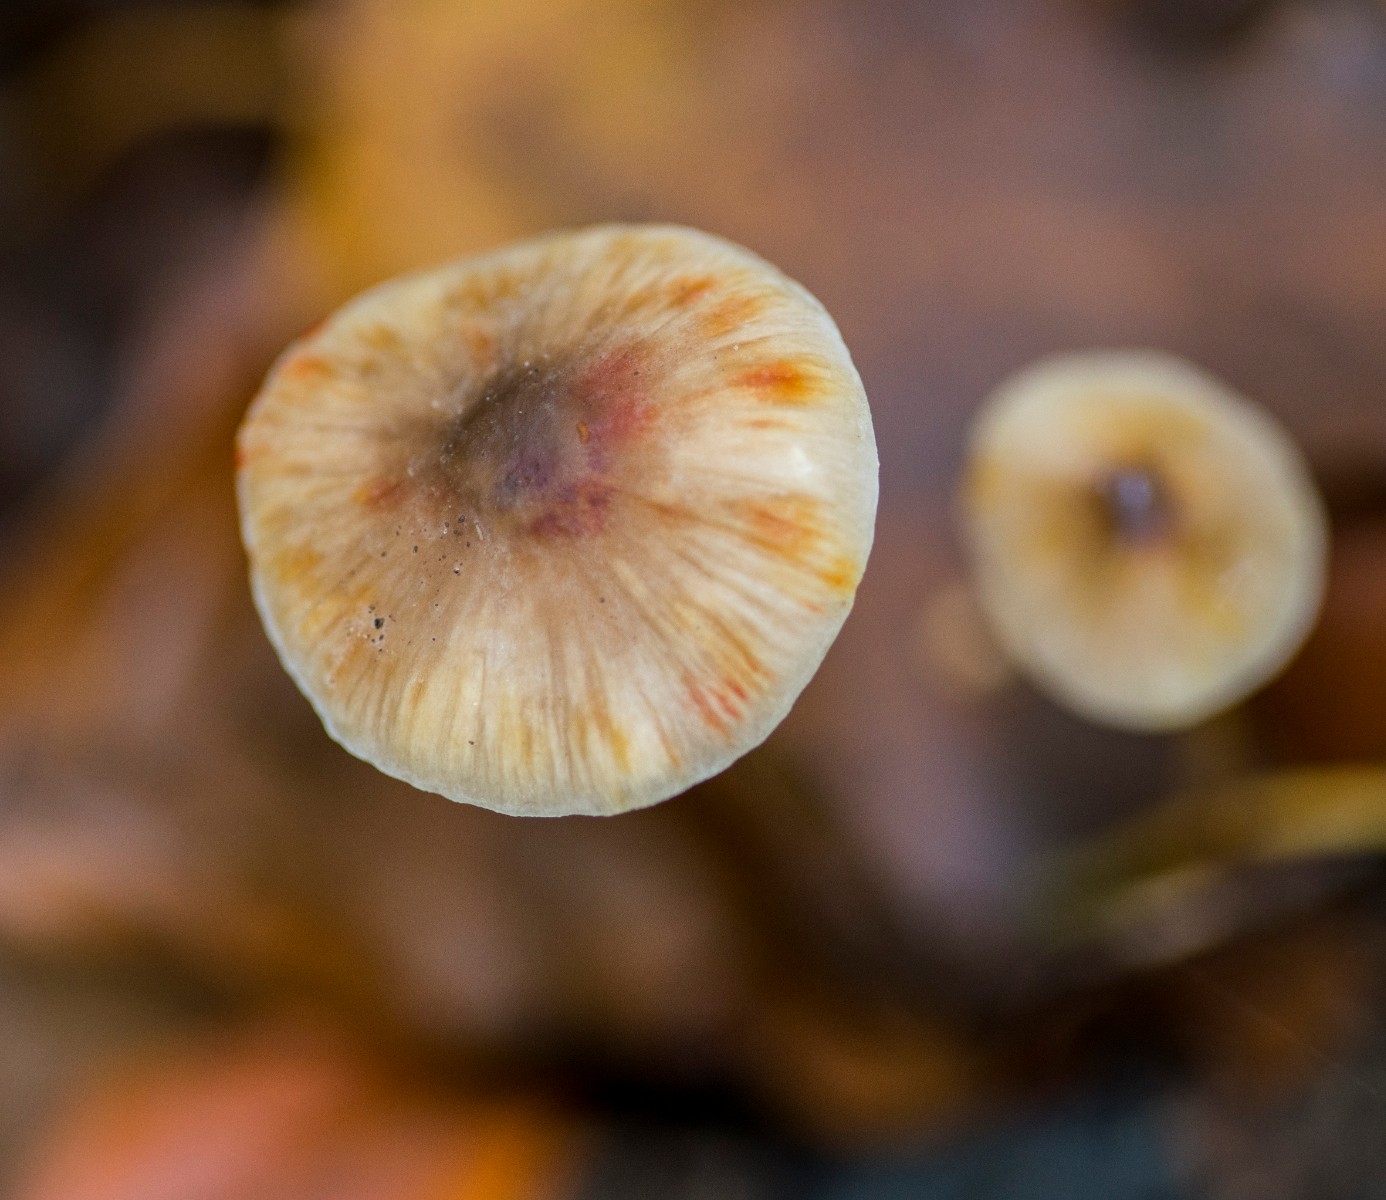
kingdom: Fungi
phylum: Basidiomycota
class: Agaricomycetes
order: Agaricales
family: Mycenaceae
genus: Mycena
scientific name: Mycena crocata
